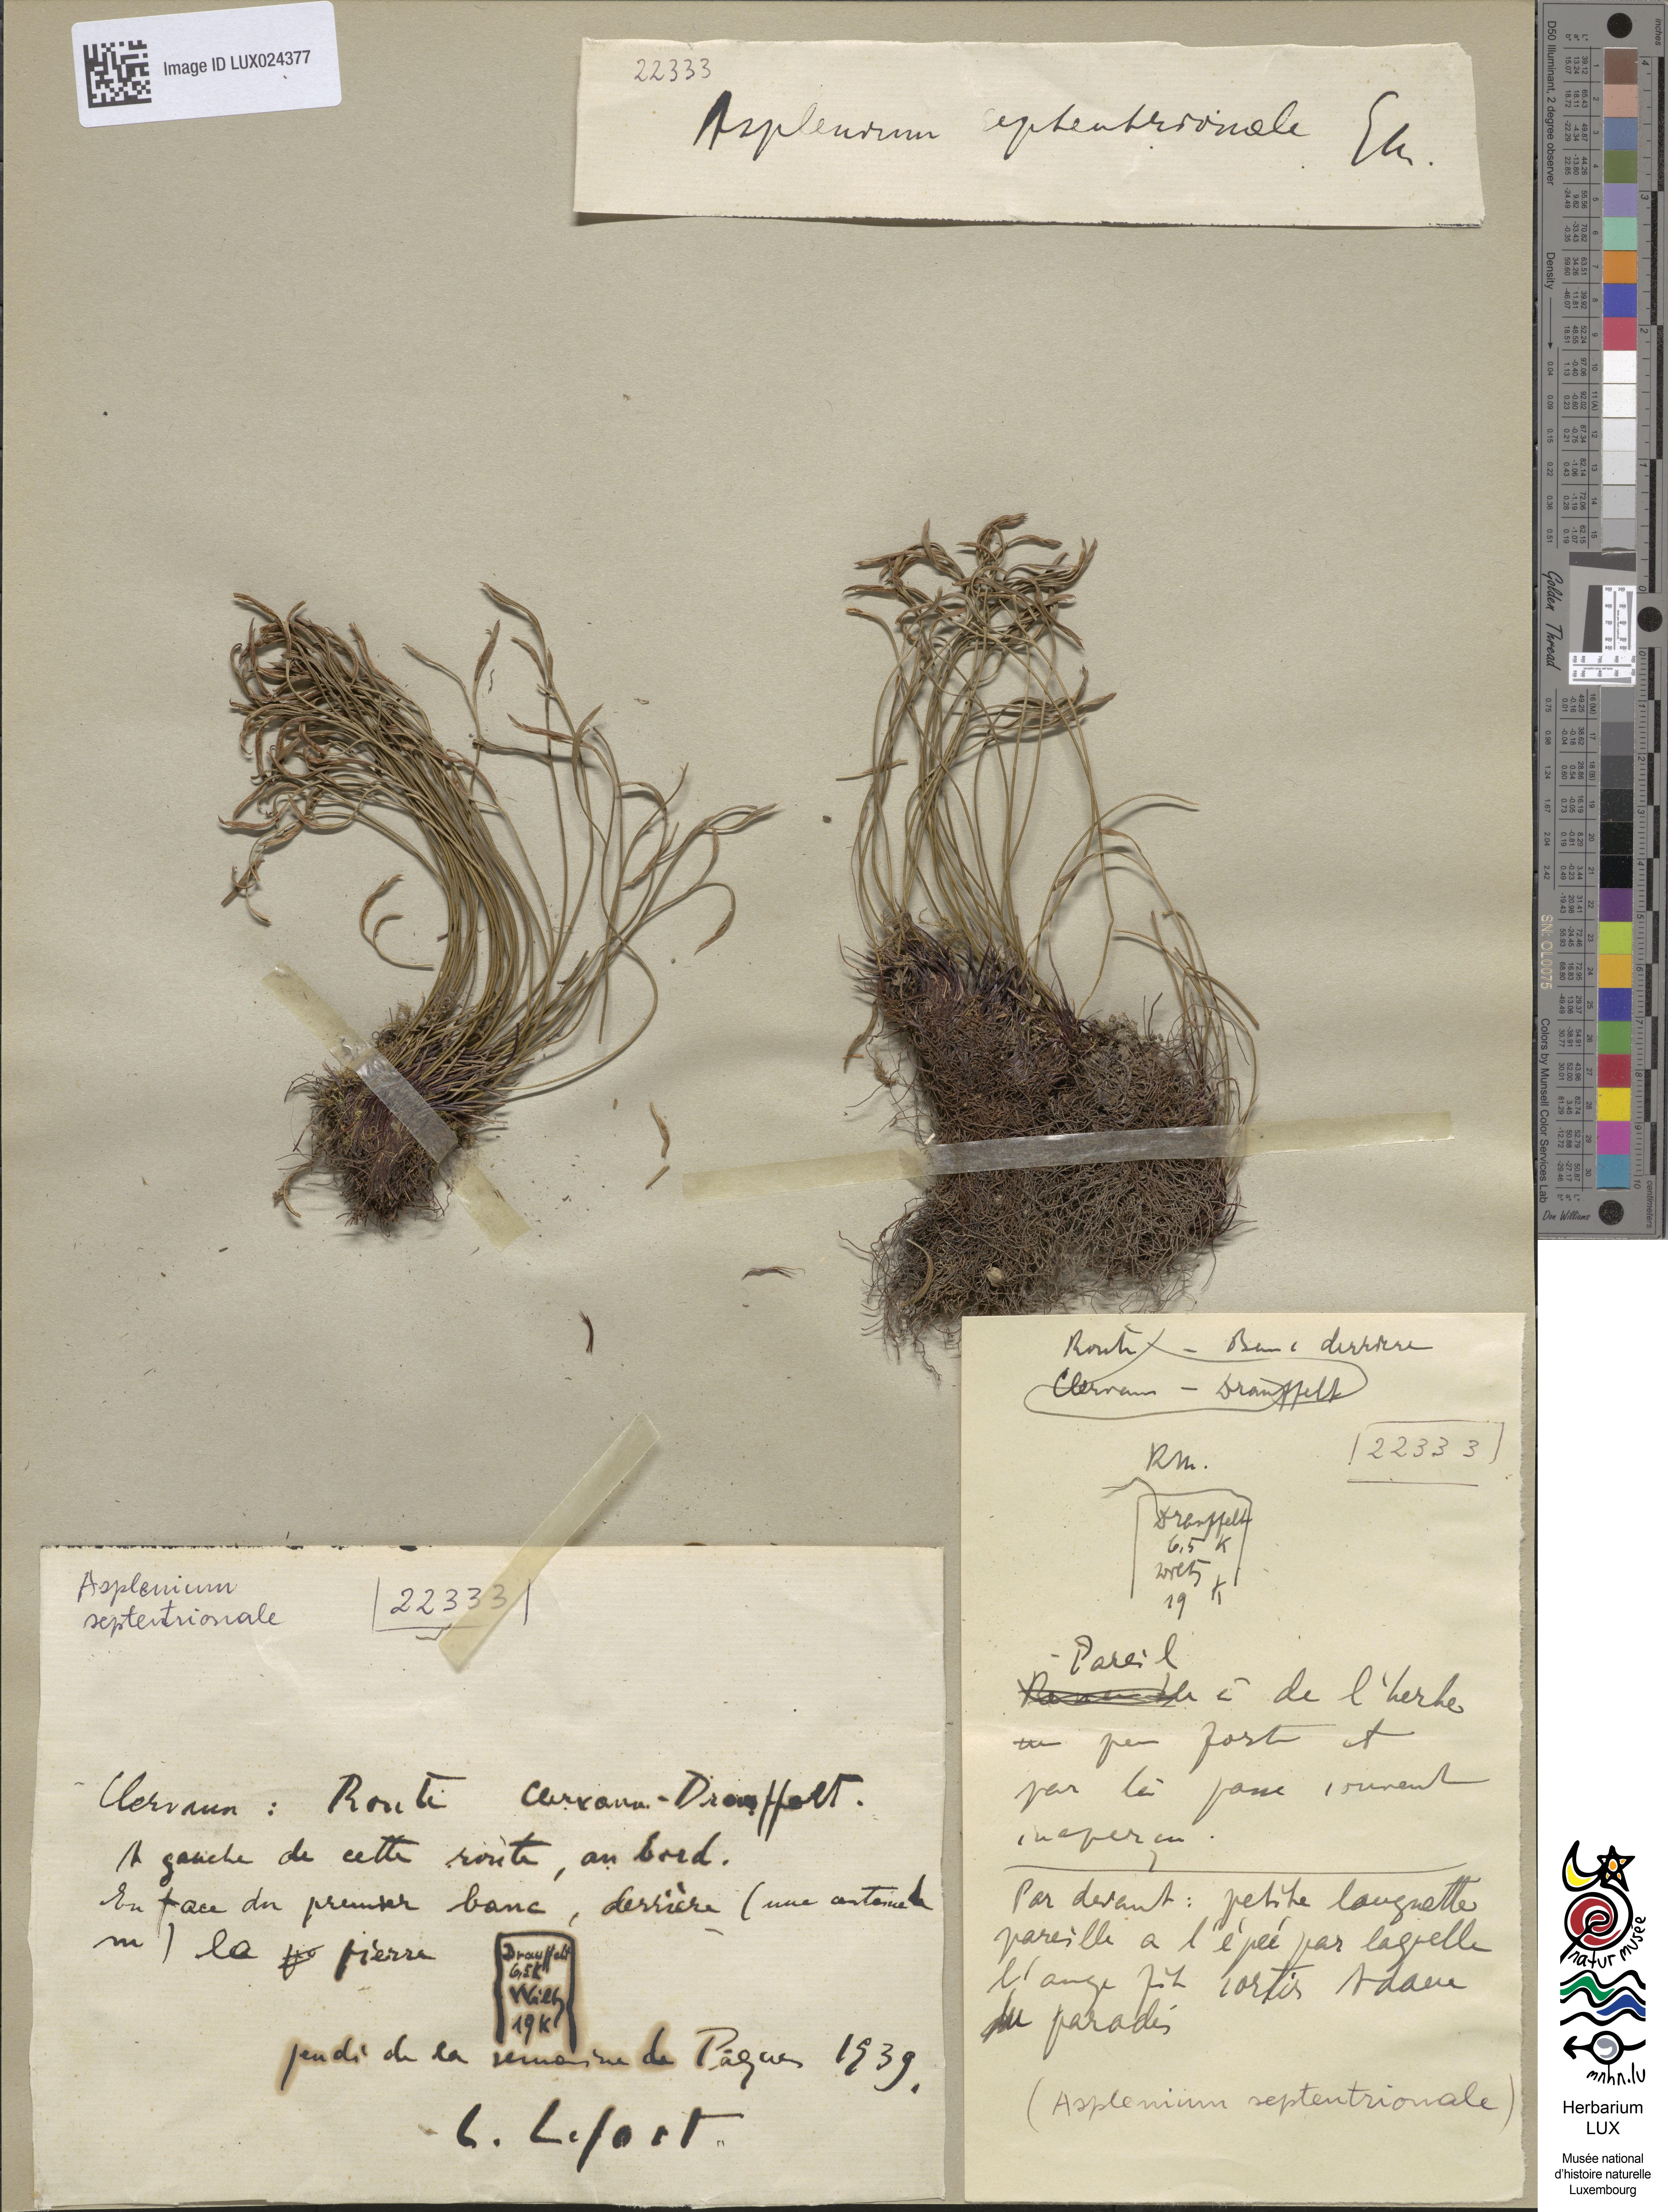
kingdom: Plantae
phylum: Tracheophyta
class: Polypodiopsida
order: Polypodiales
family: Aspleniaceae
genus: Asplenium
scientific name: Asplenium septentrionale
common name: Forked spleenwort
